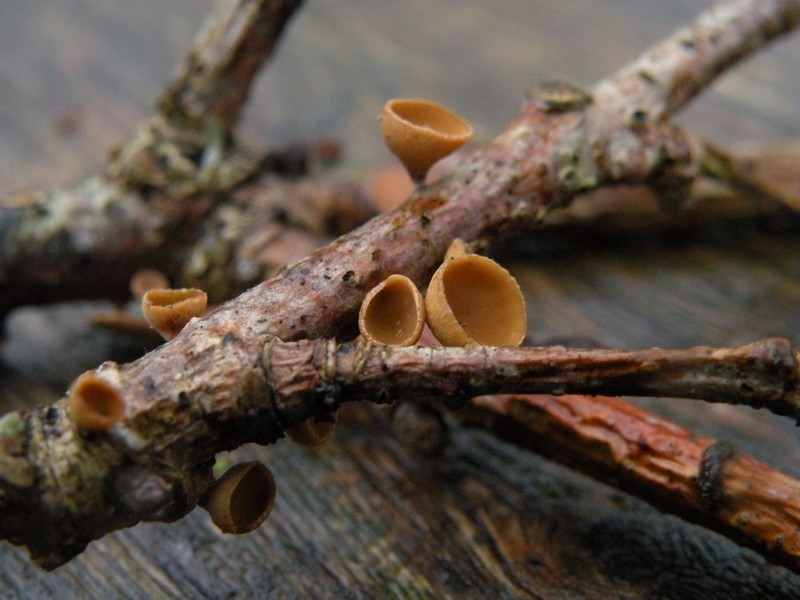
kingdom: Fungi
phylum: Ascomycota
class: Leotiomycetes
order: Helotiales
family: Rutstroemiaceae
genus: Rutstroemia
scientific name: Rutstroemia firma
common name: gren-brunskive
